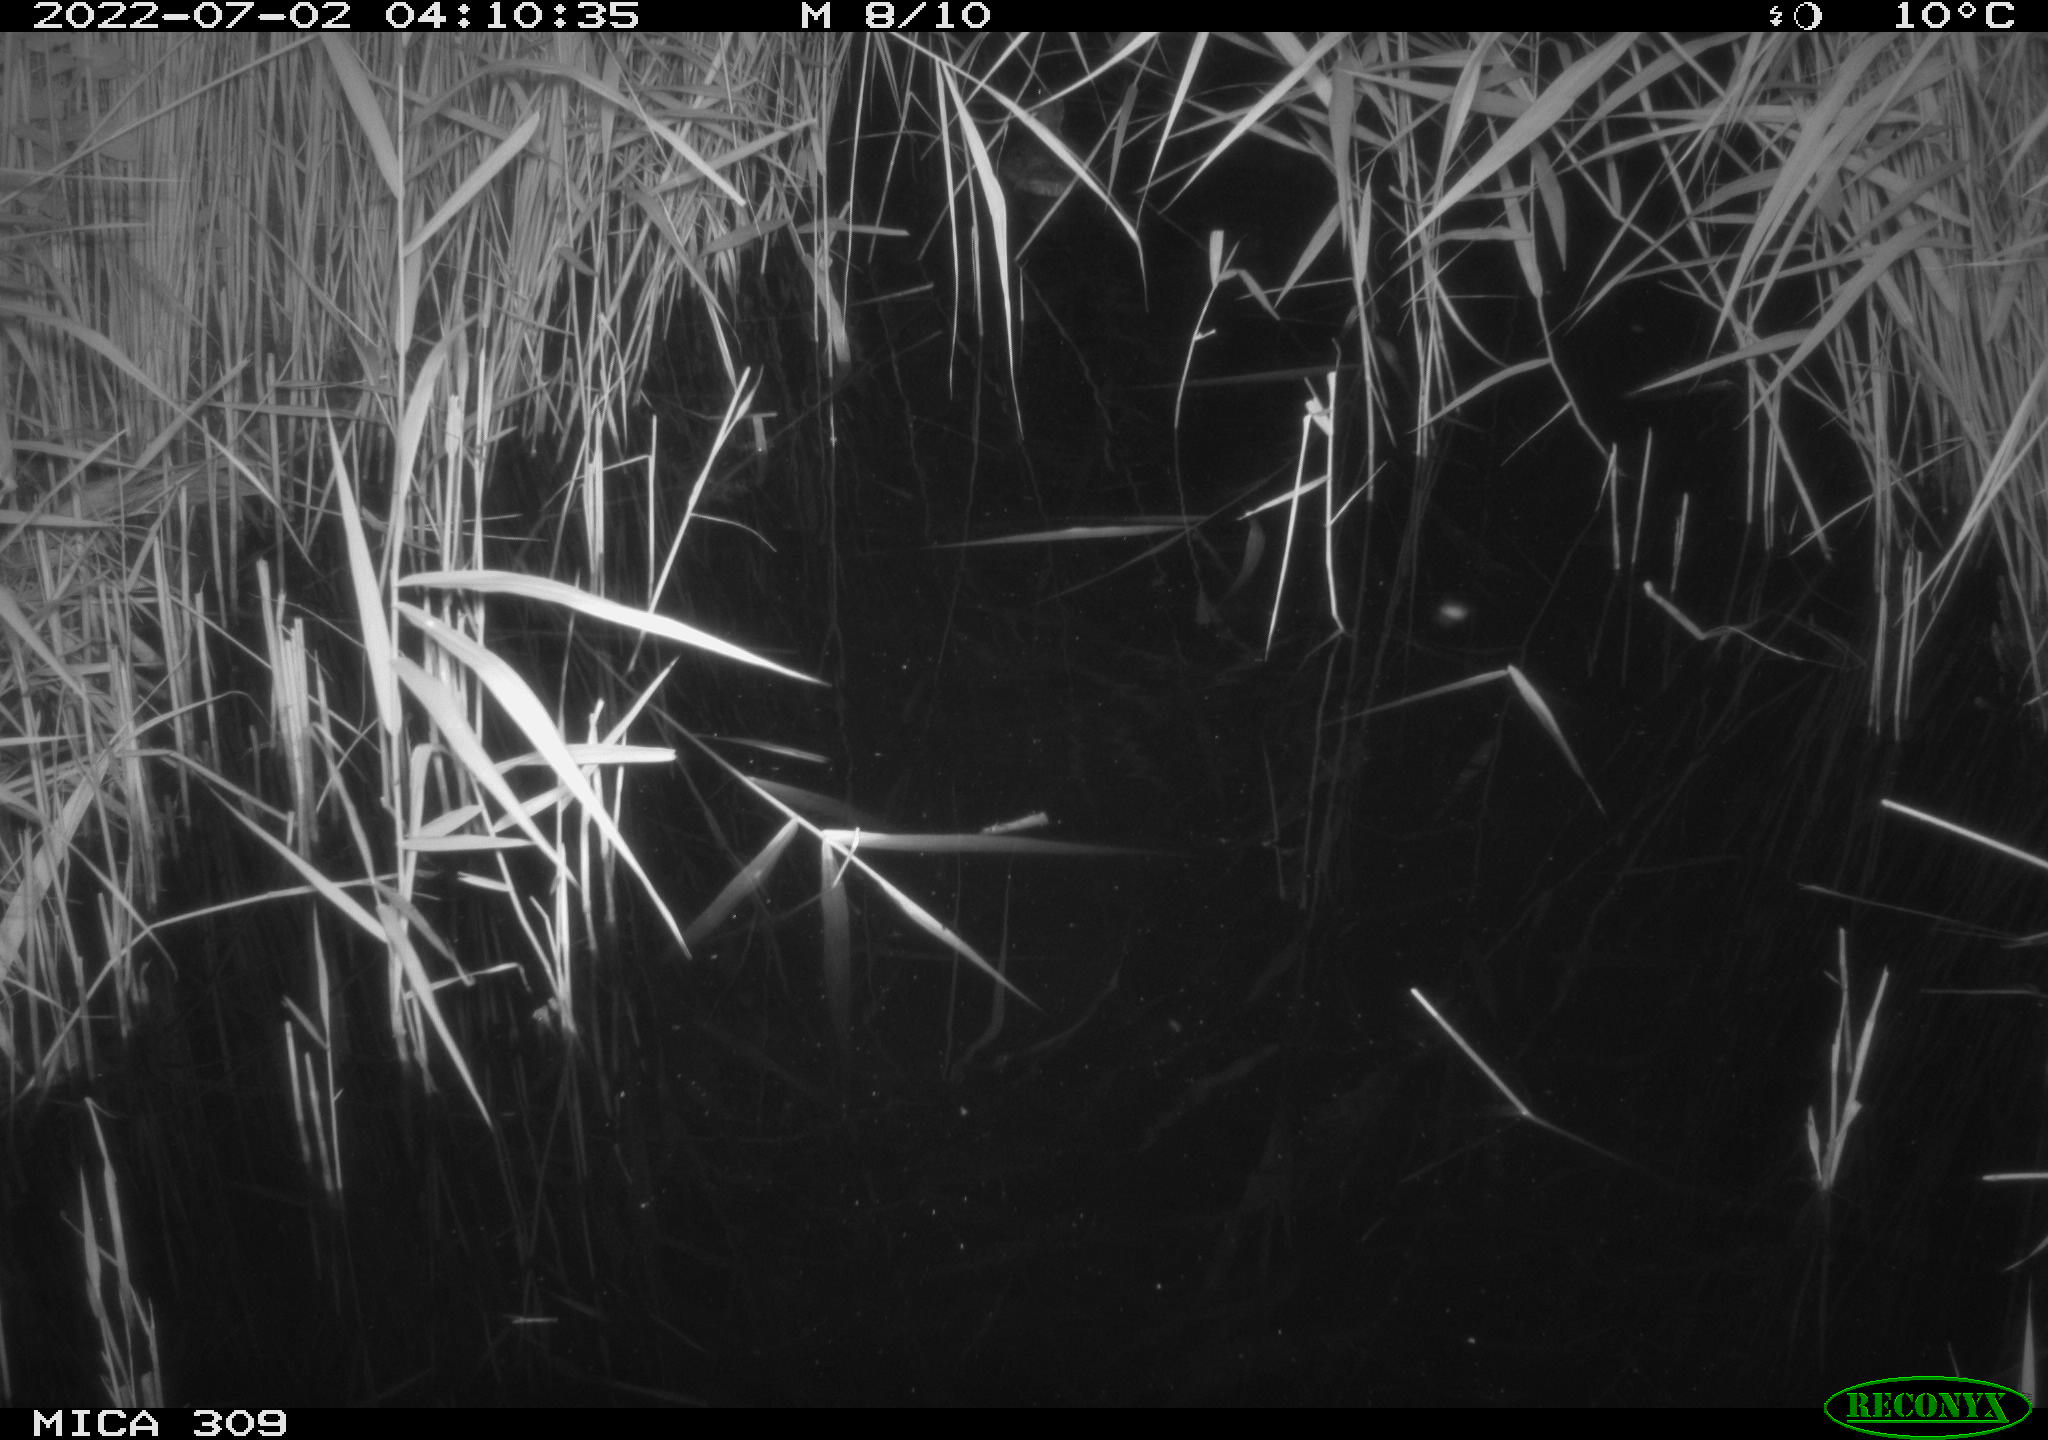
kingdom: Animalia
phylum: Chordata
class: Aves
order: Anseriformes
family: Anatidae
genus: Anas
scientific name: Anas platyrhynchos
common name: Mallard
